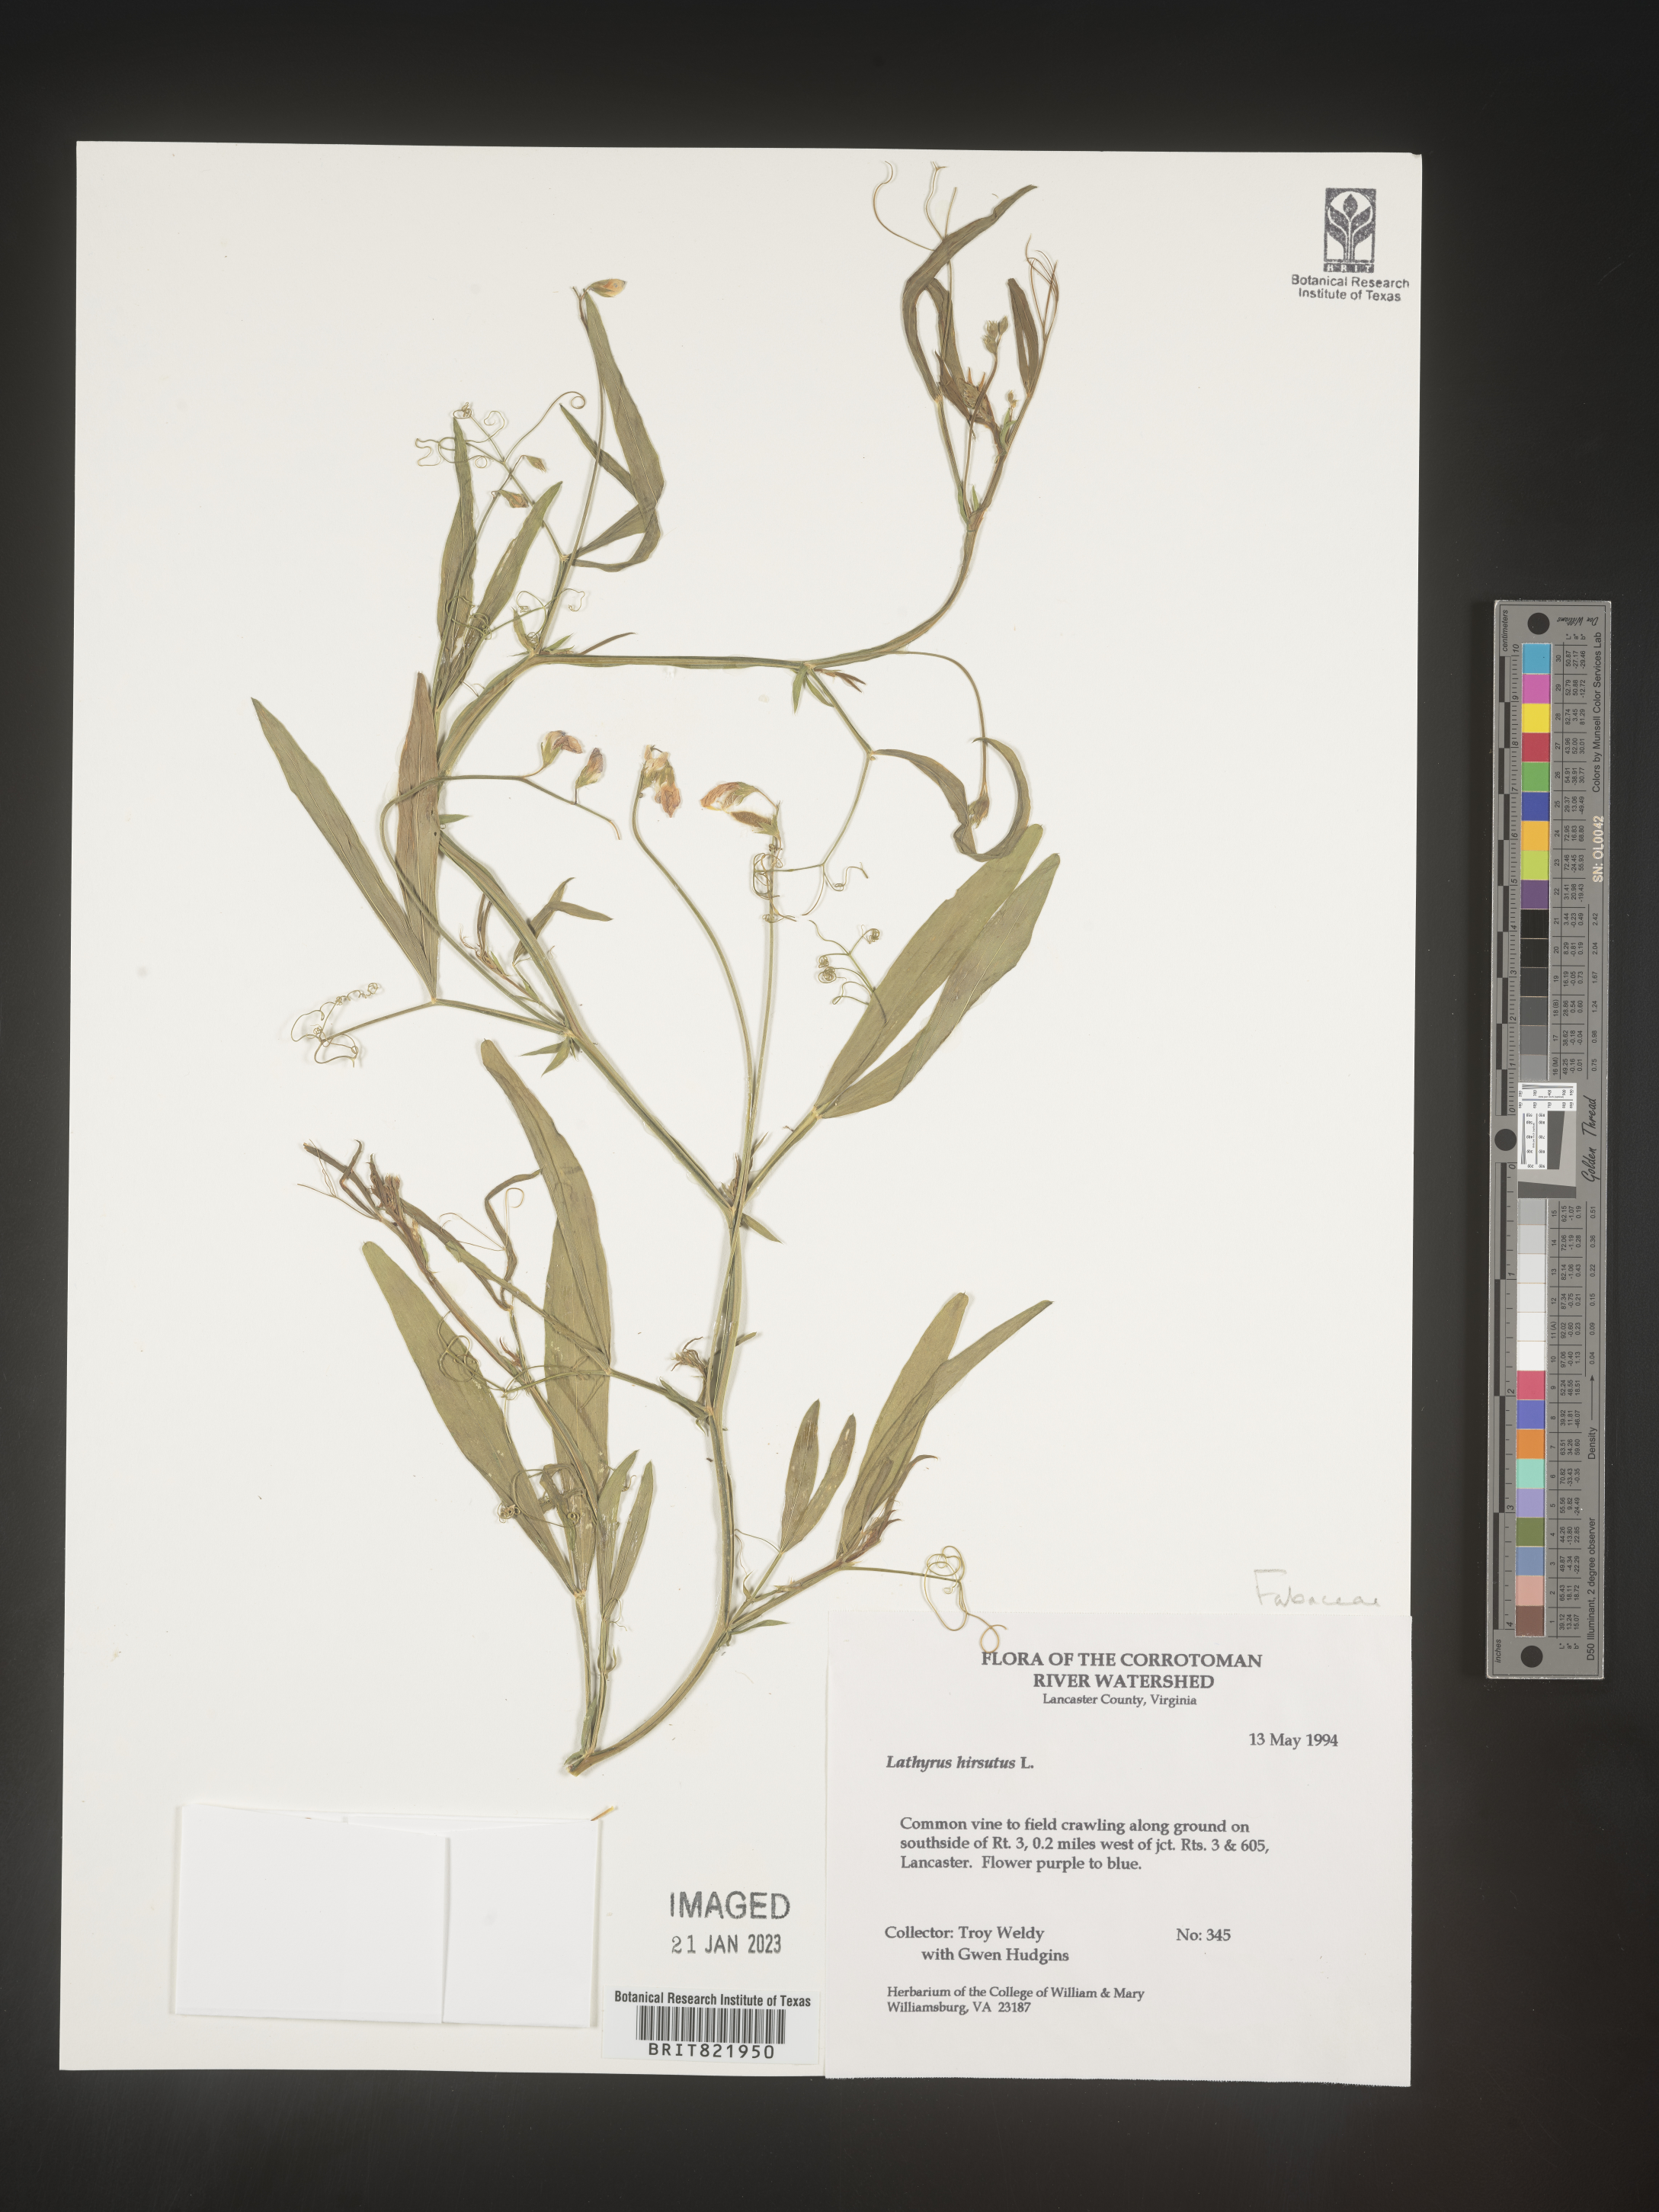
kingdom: Plantae
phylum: Tracheophyta
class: Magnoliopsida
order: Fabales
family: Fabaceae
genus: Lathyrus
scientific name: Lathyrus hirsutus
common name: Hairy vetchling
